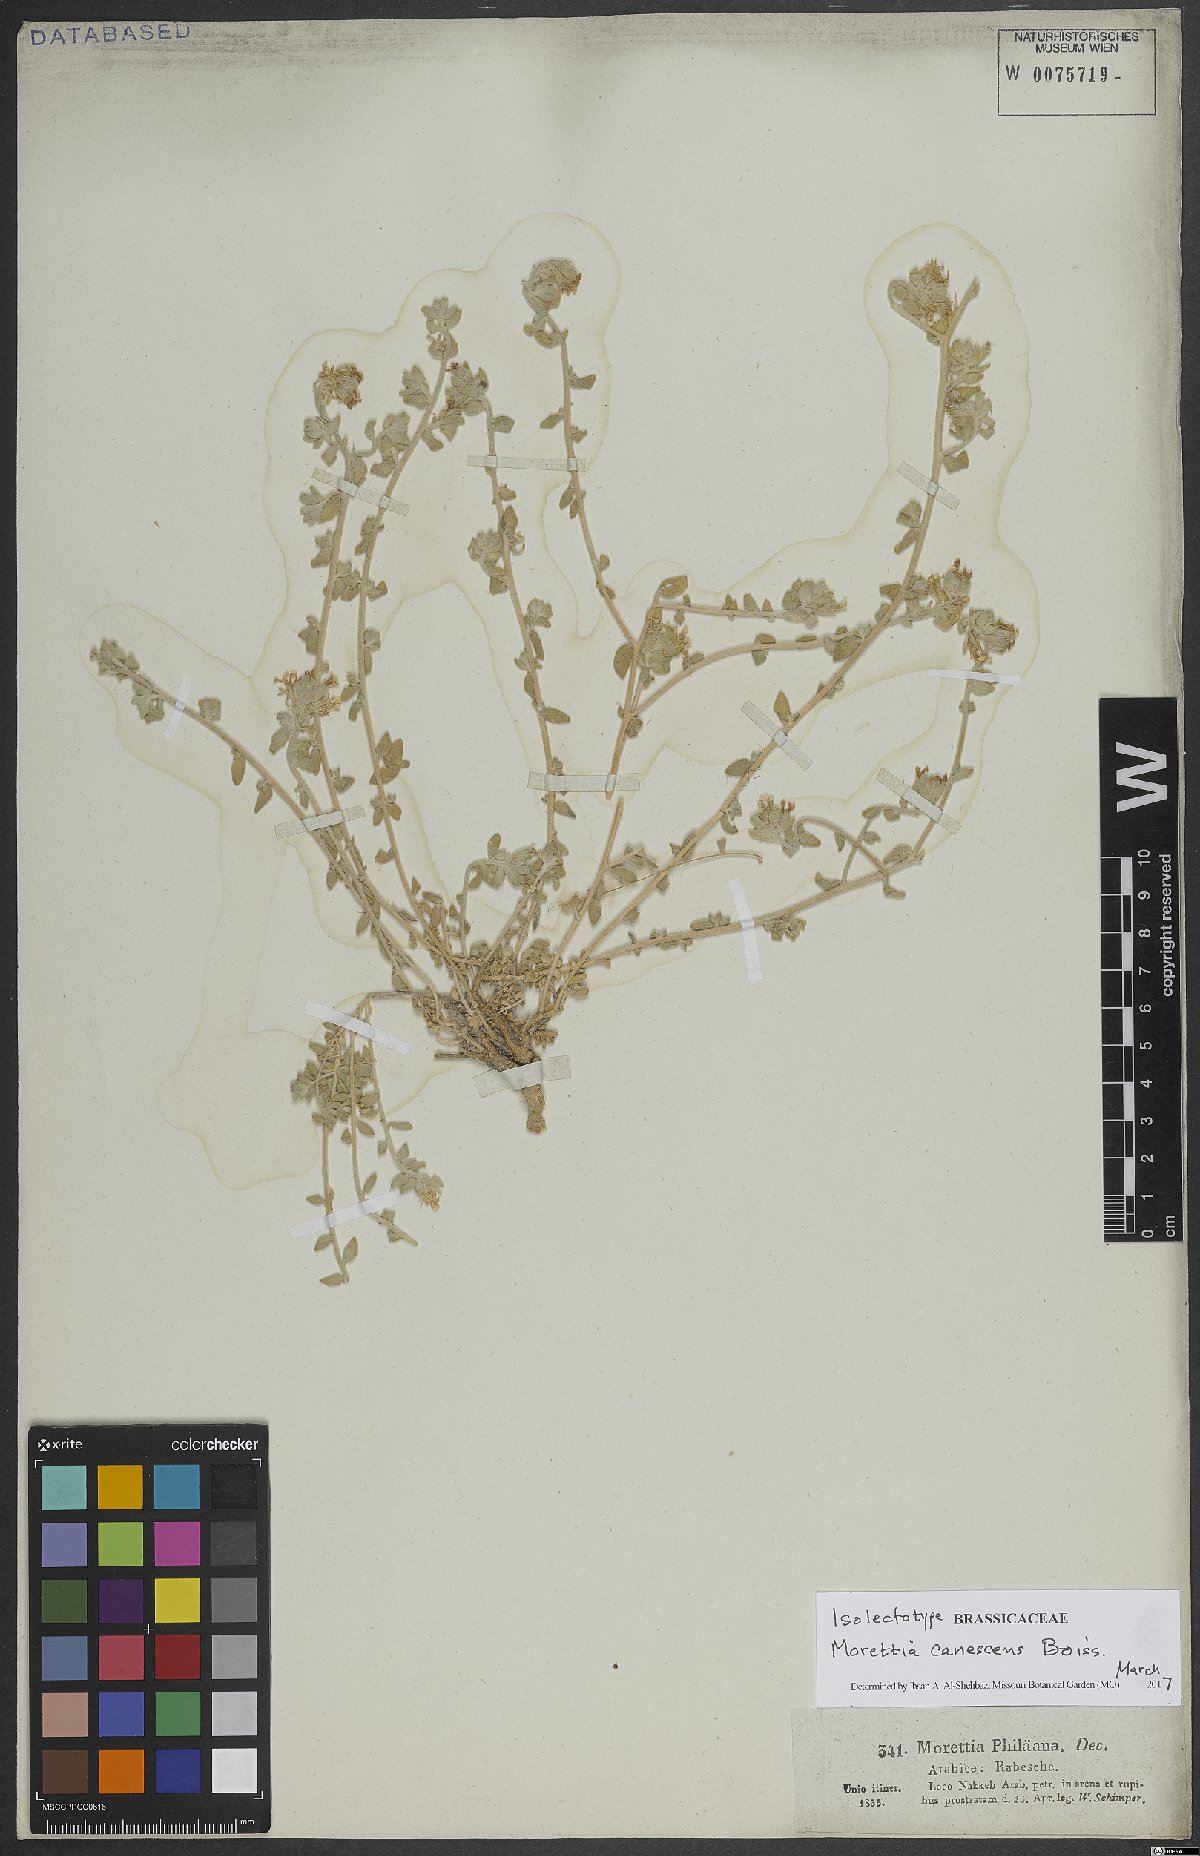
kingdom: Plantae
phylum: Tracheophyta
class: Magnoliopsida
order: Brassicales
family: Brassicaceae
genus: Morettia
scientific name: Morettia canescens
